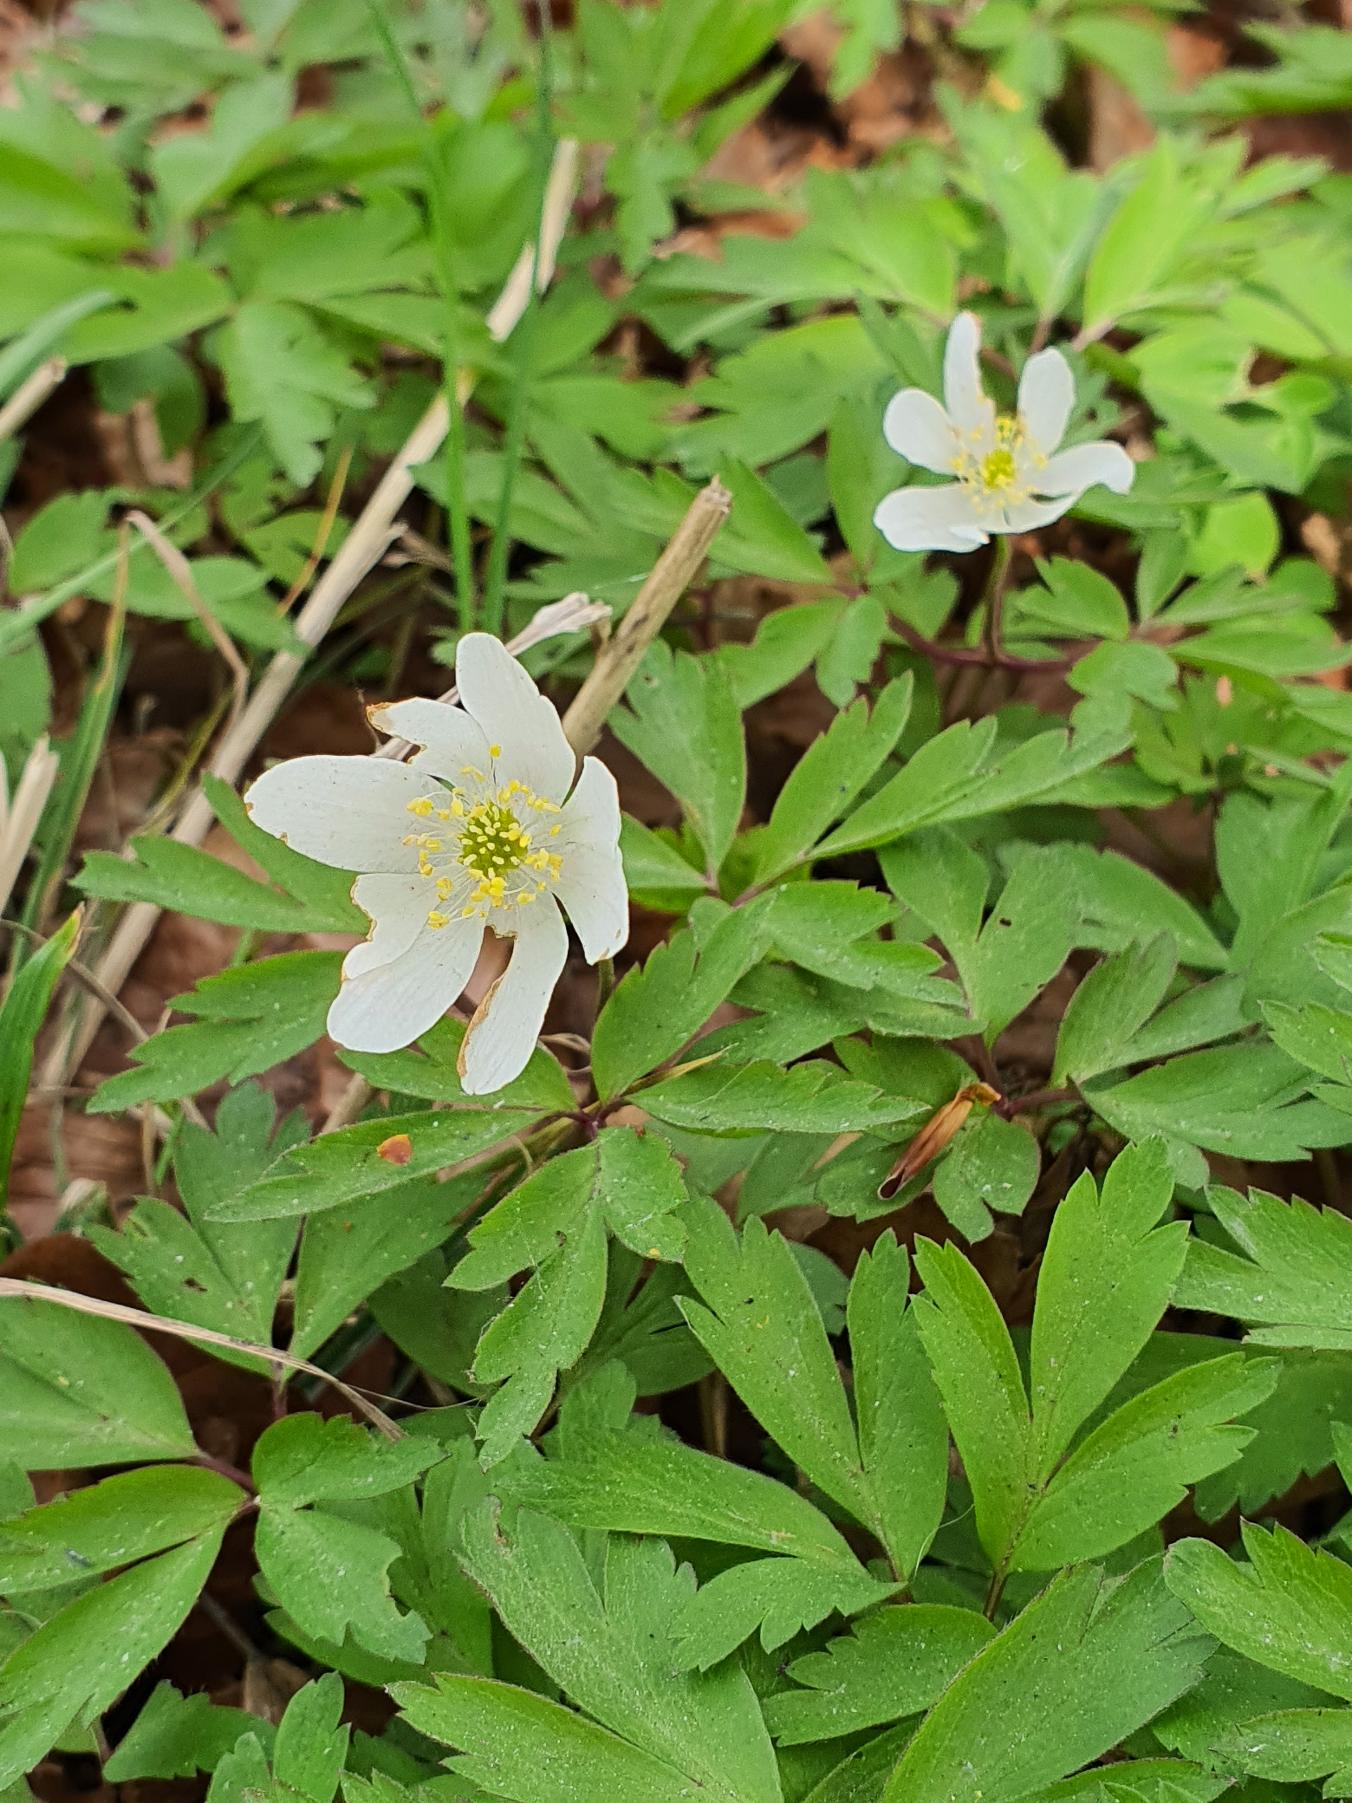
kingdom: Plantae
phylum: Tracheophyta
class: Magnoliopsida
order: Ranunculales
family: Ranunculaceae
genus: Anemone
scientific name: Anemone nemorosa
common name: Hvid anemone
